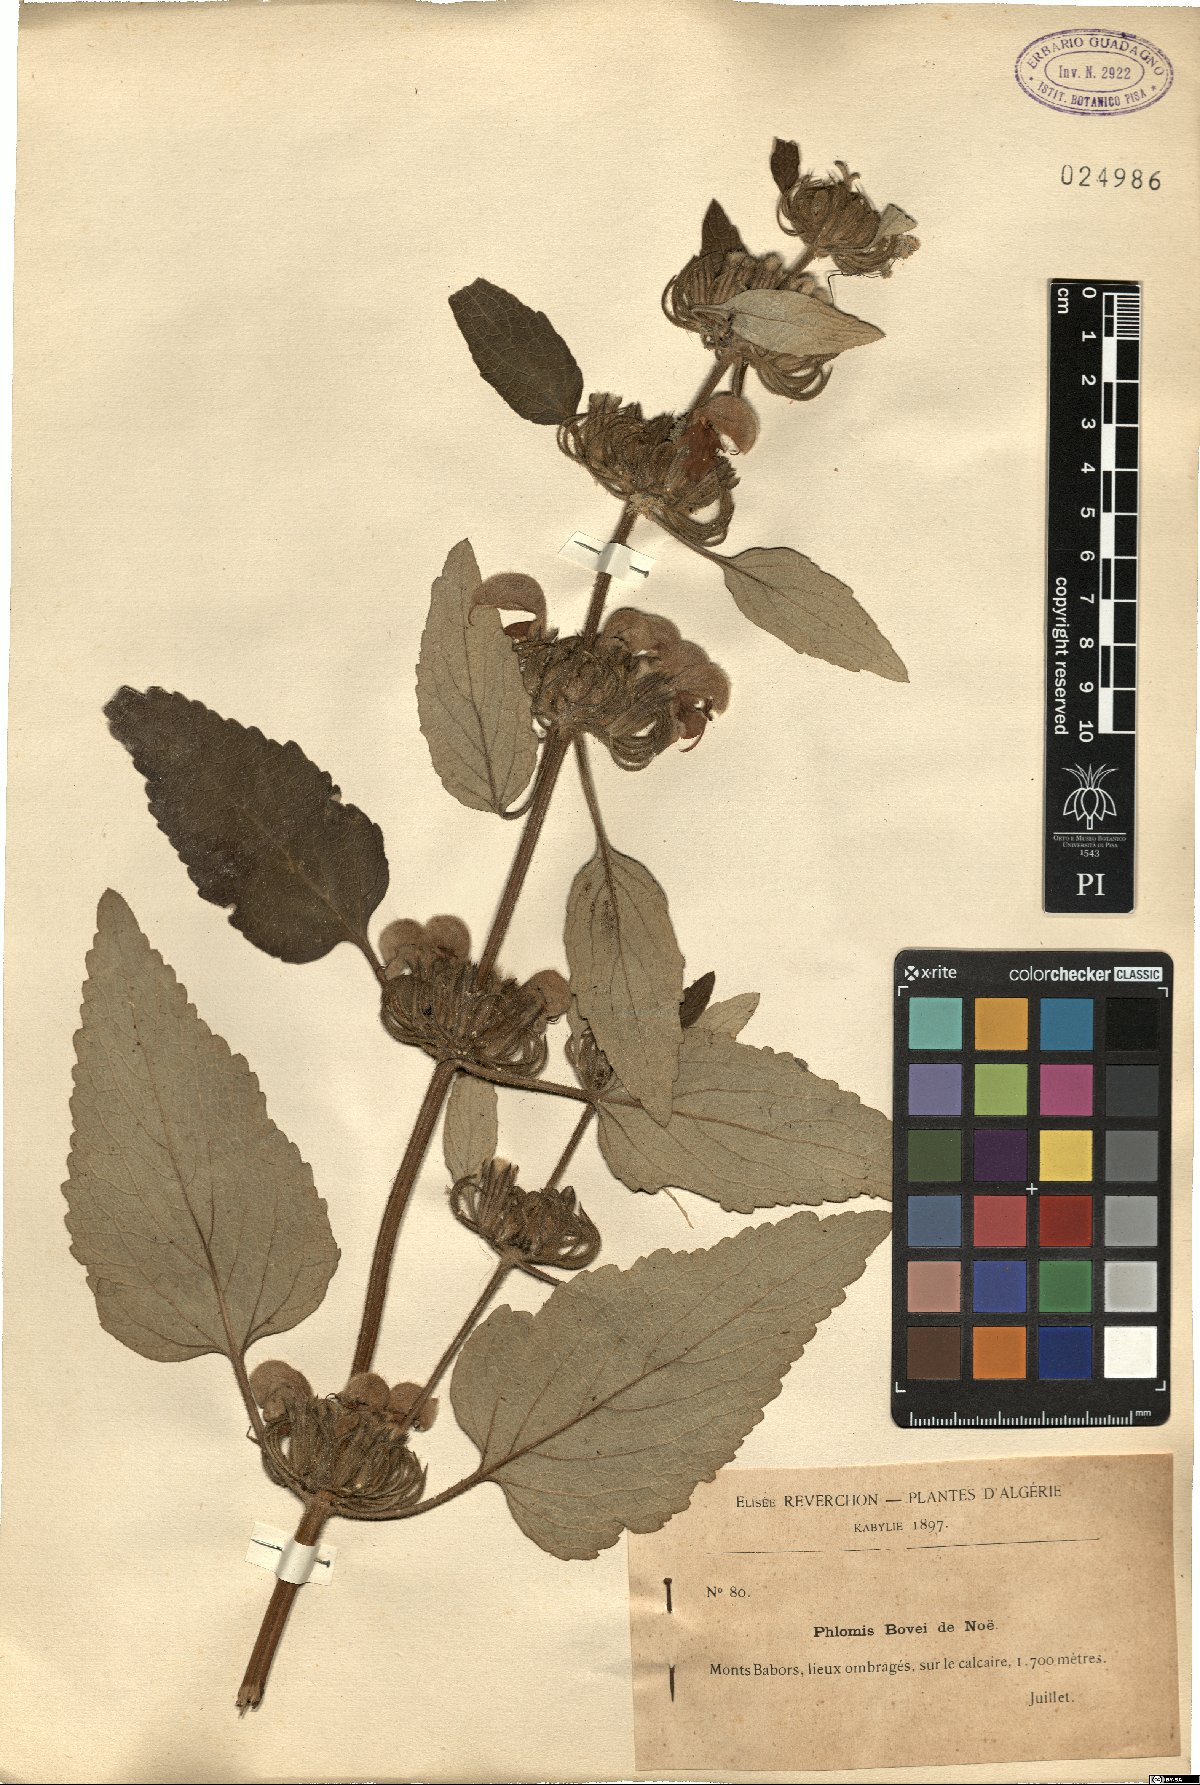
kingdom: Plantae
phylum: Tracheophyta
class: Magnoliopsida
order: Lamiales
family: Lamiaceae
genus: Phlomis
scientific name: Phlomis bovei
